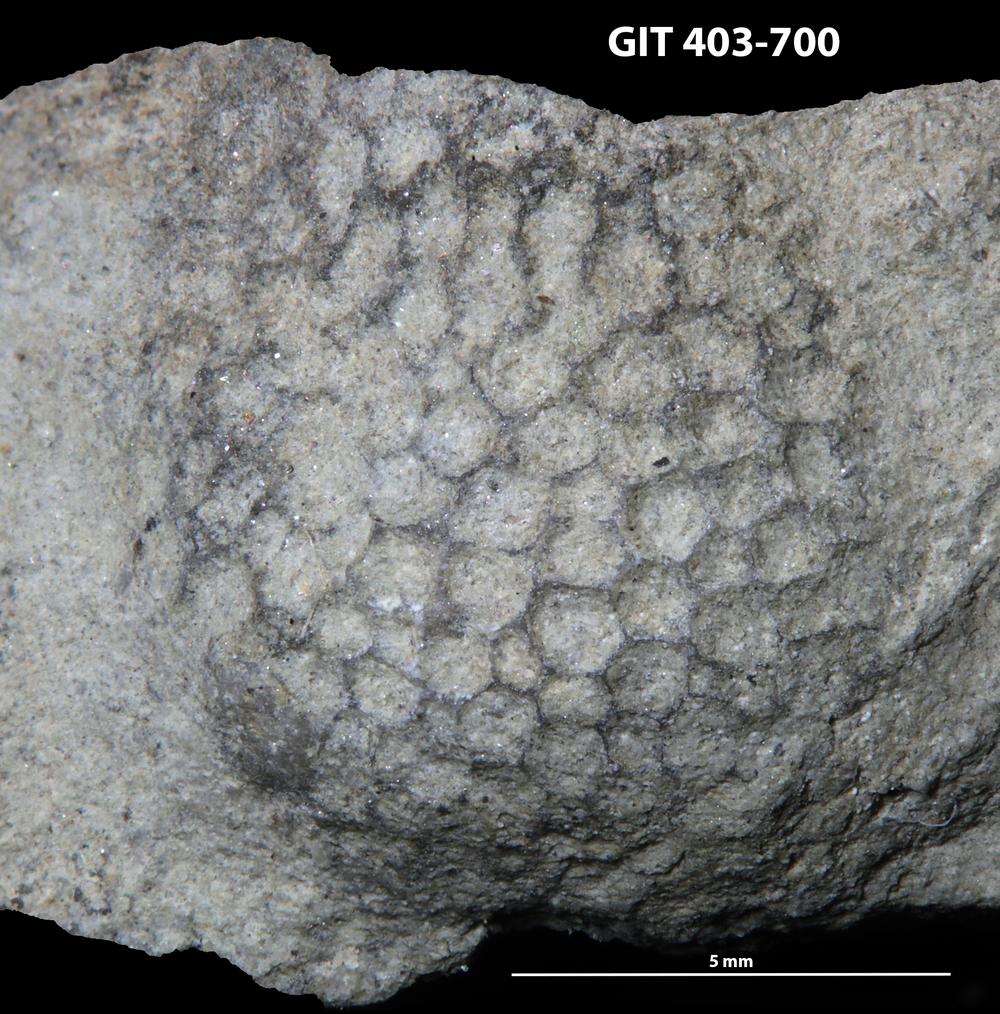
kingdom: Animalia
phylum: Cnidaria
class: Anthozoa
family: Favositidae
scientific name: Favositidae
